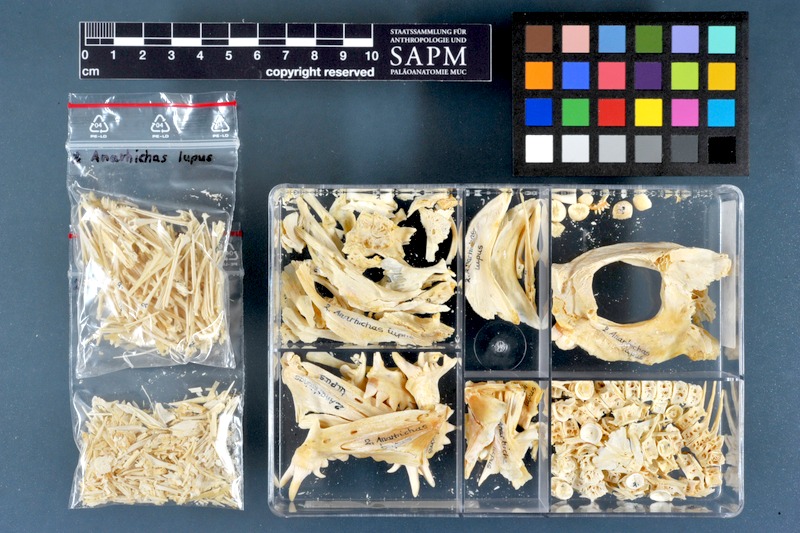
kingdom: Animalia
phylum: Chordata
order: Perciformes
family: Anarhichadidae
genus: Anarhichas
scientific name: Anarhichas lupus
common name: Wolf-fish
